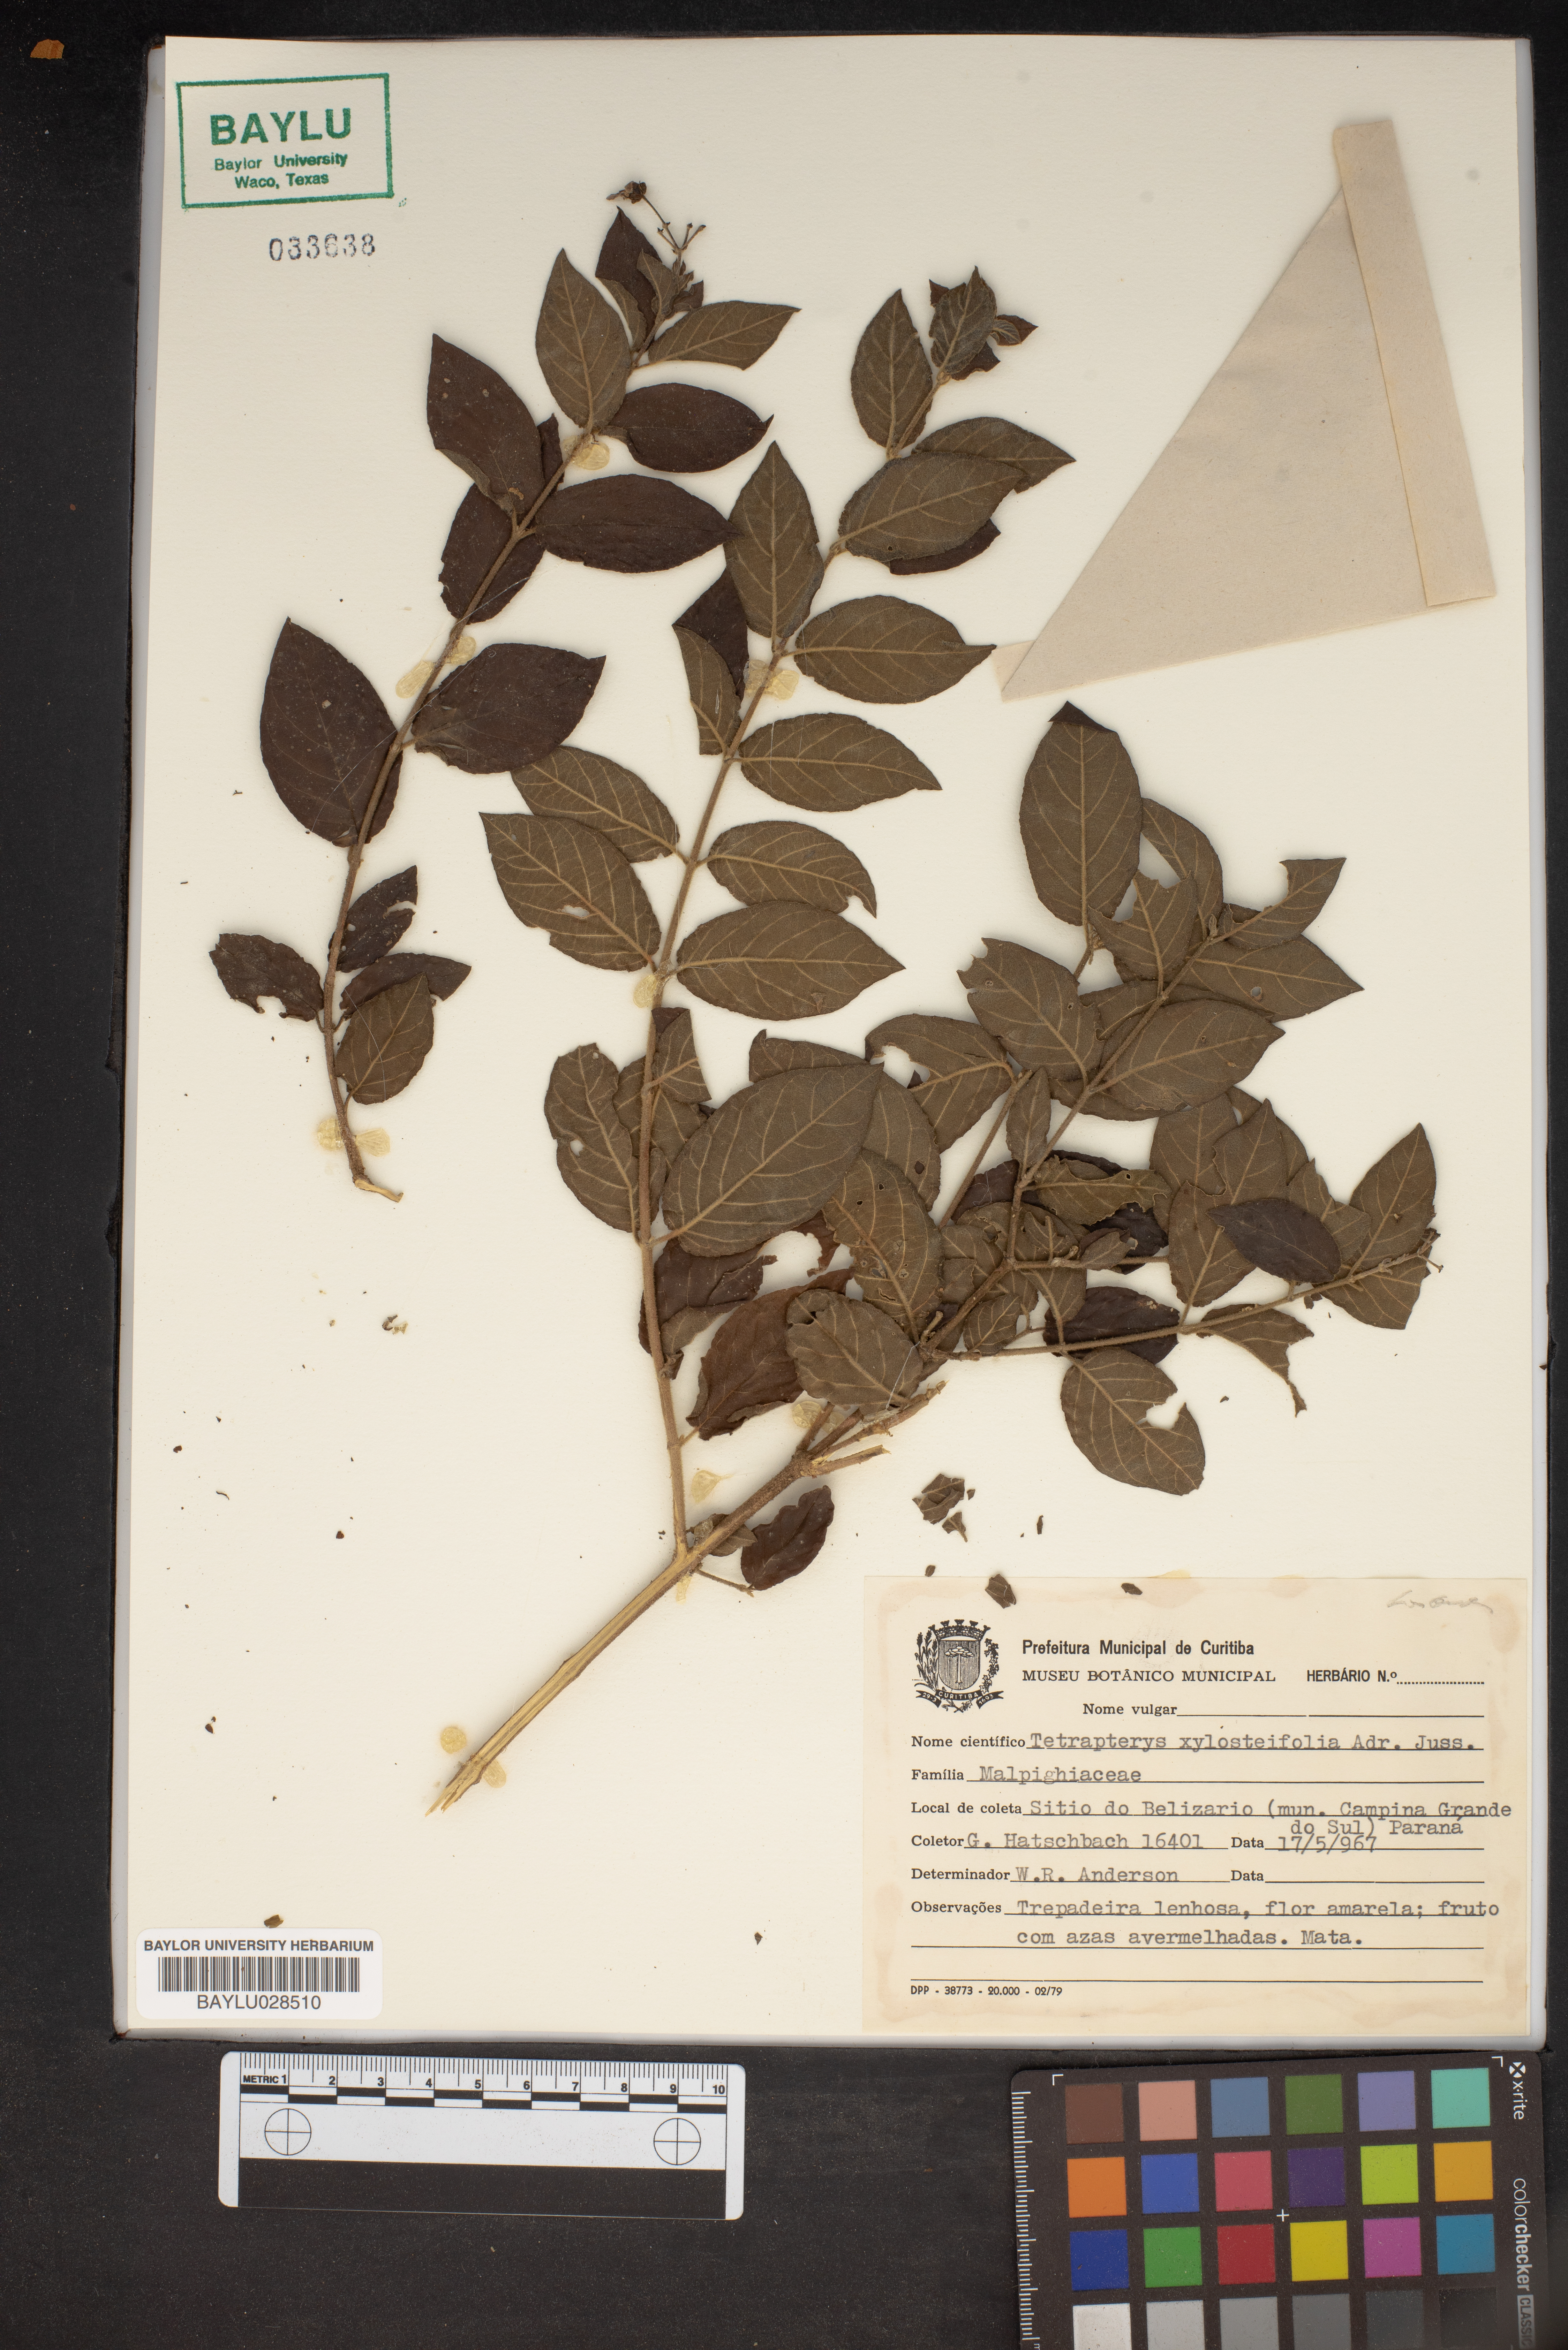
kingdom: Plantae
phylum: Tracheophyta
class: Magnoliopsida
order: Malpighiales
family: Malpighiaceae
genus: Tetrapterys
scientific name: Tetrapterys xylosteifolia
